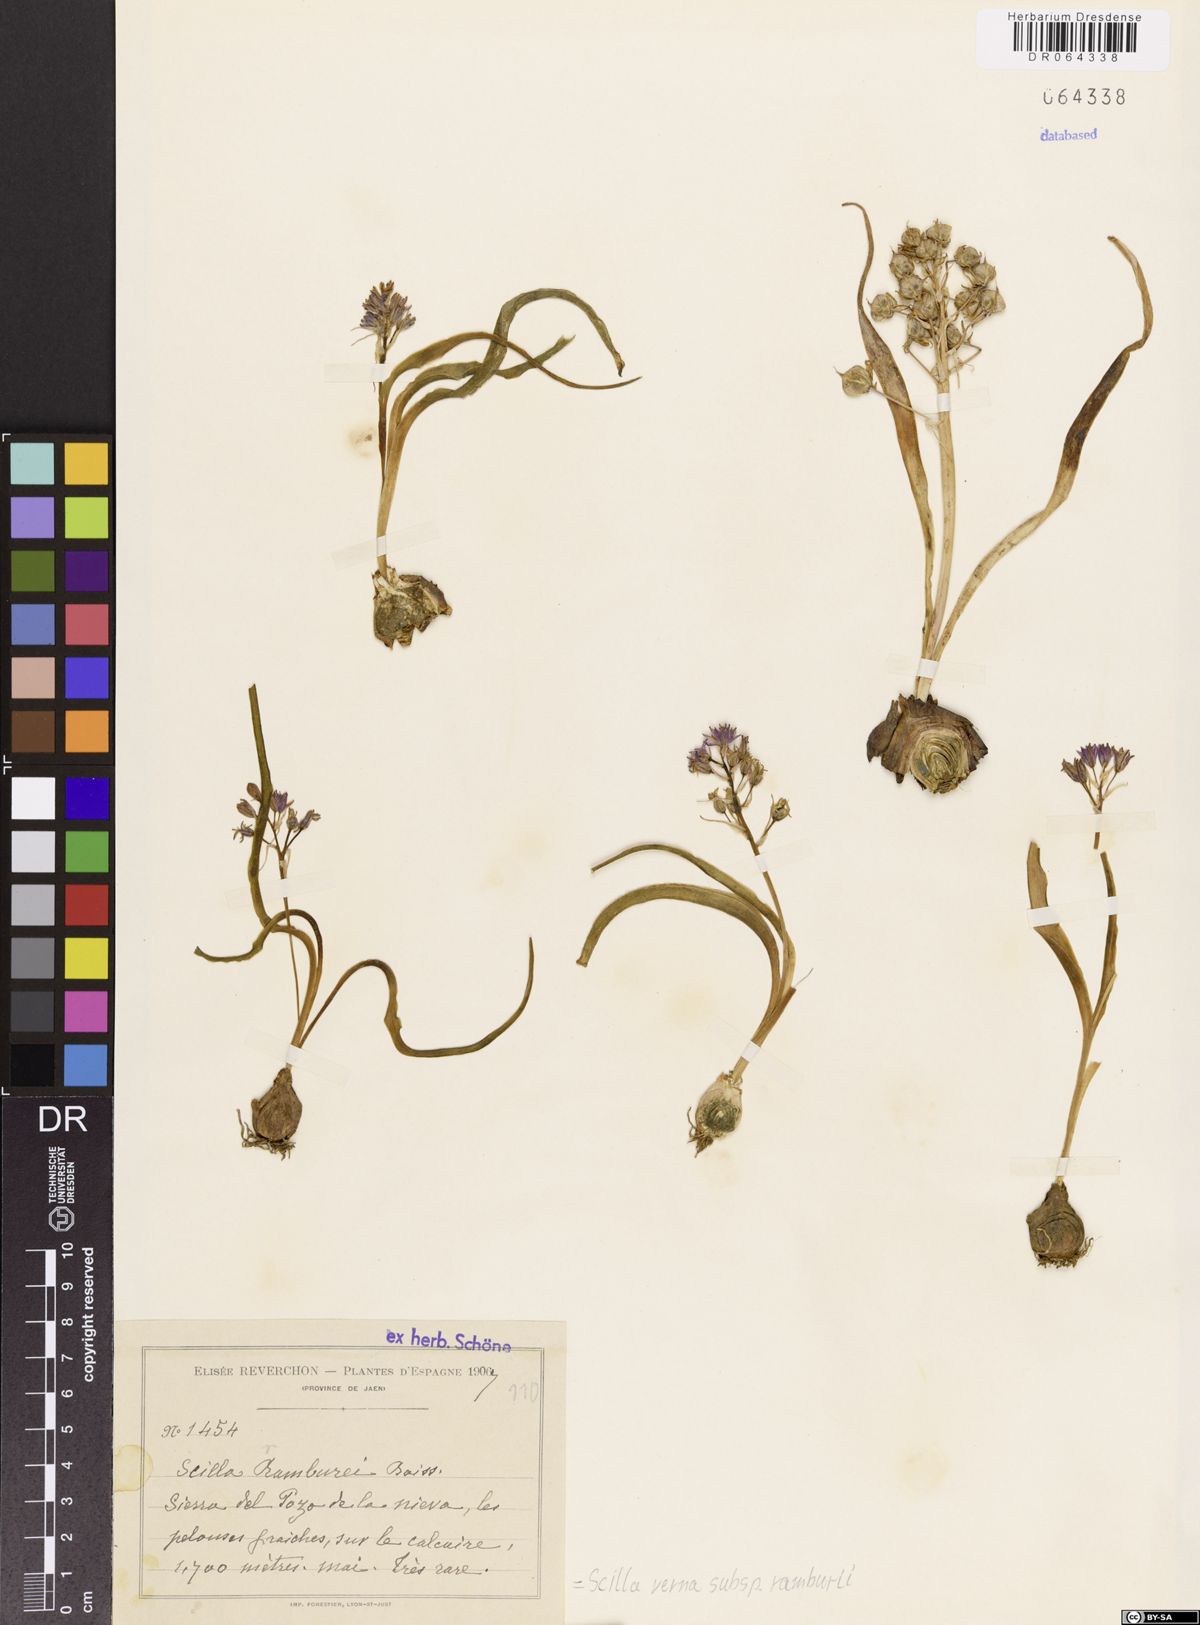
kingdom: Plantae
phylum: Tracheophyta
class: Liliopsida
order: Asparagales
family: Asparagaceae
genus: Scilla
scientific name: Scilla verna
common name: Spring squill
